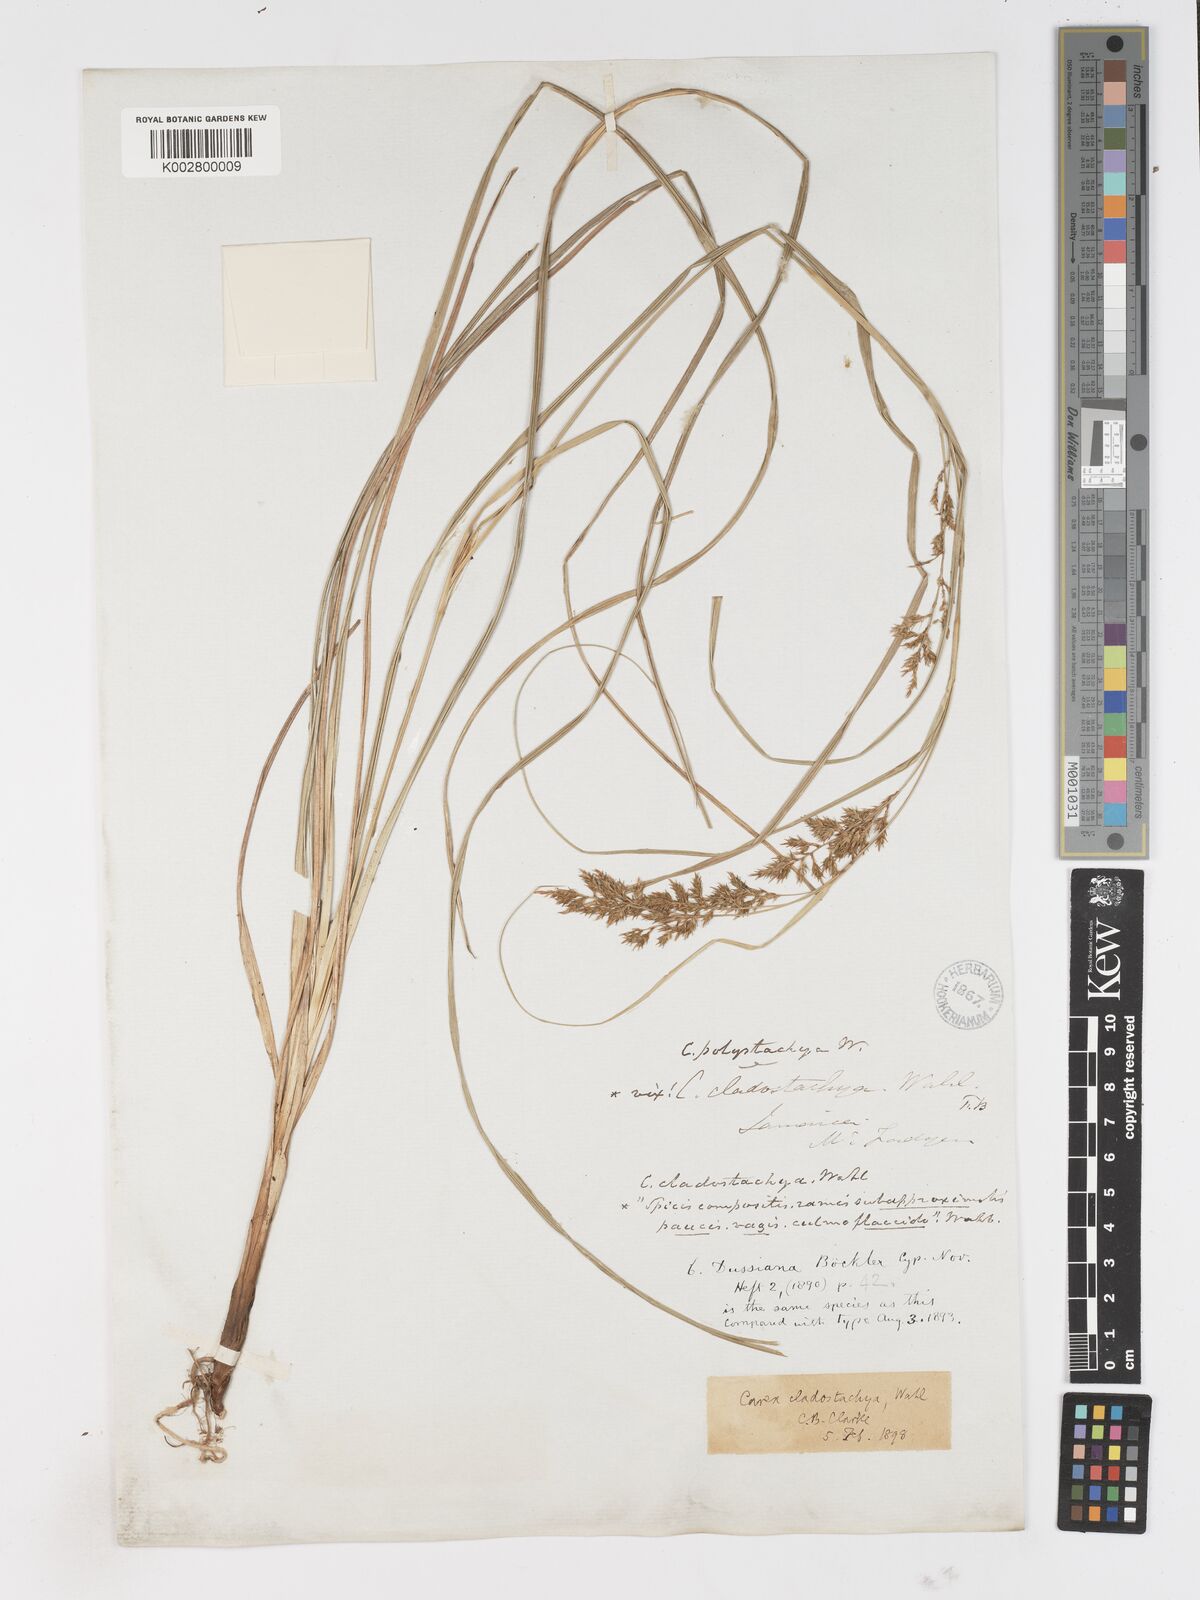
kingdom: Plantae
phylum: Tracheophyta
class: Liliopsida
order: Poales
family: Cyperaceae
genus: Carex
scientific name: Carex polystachya
